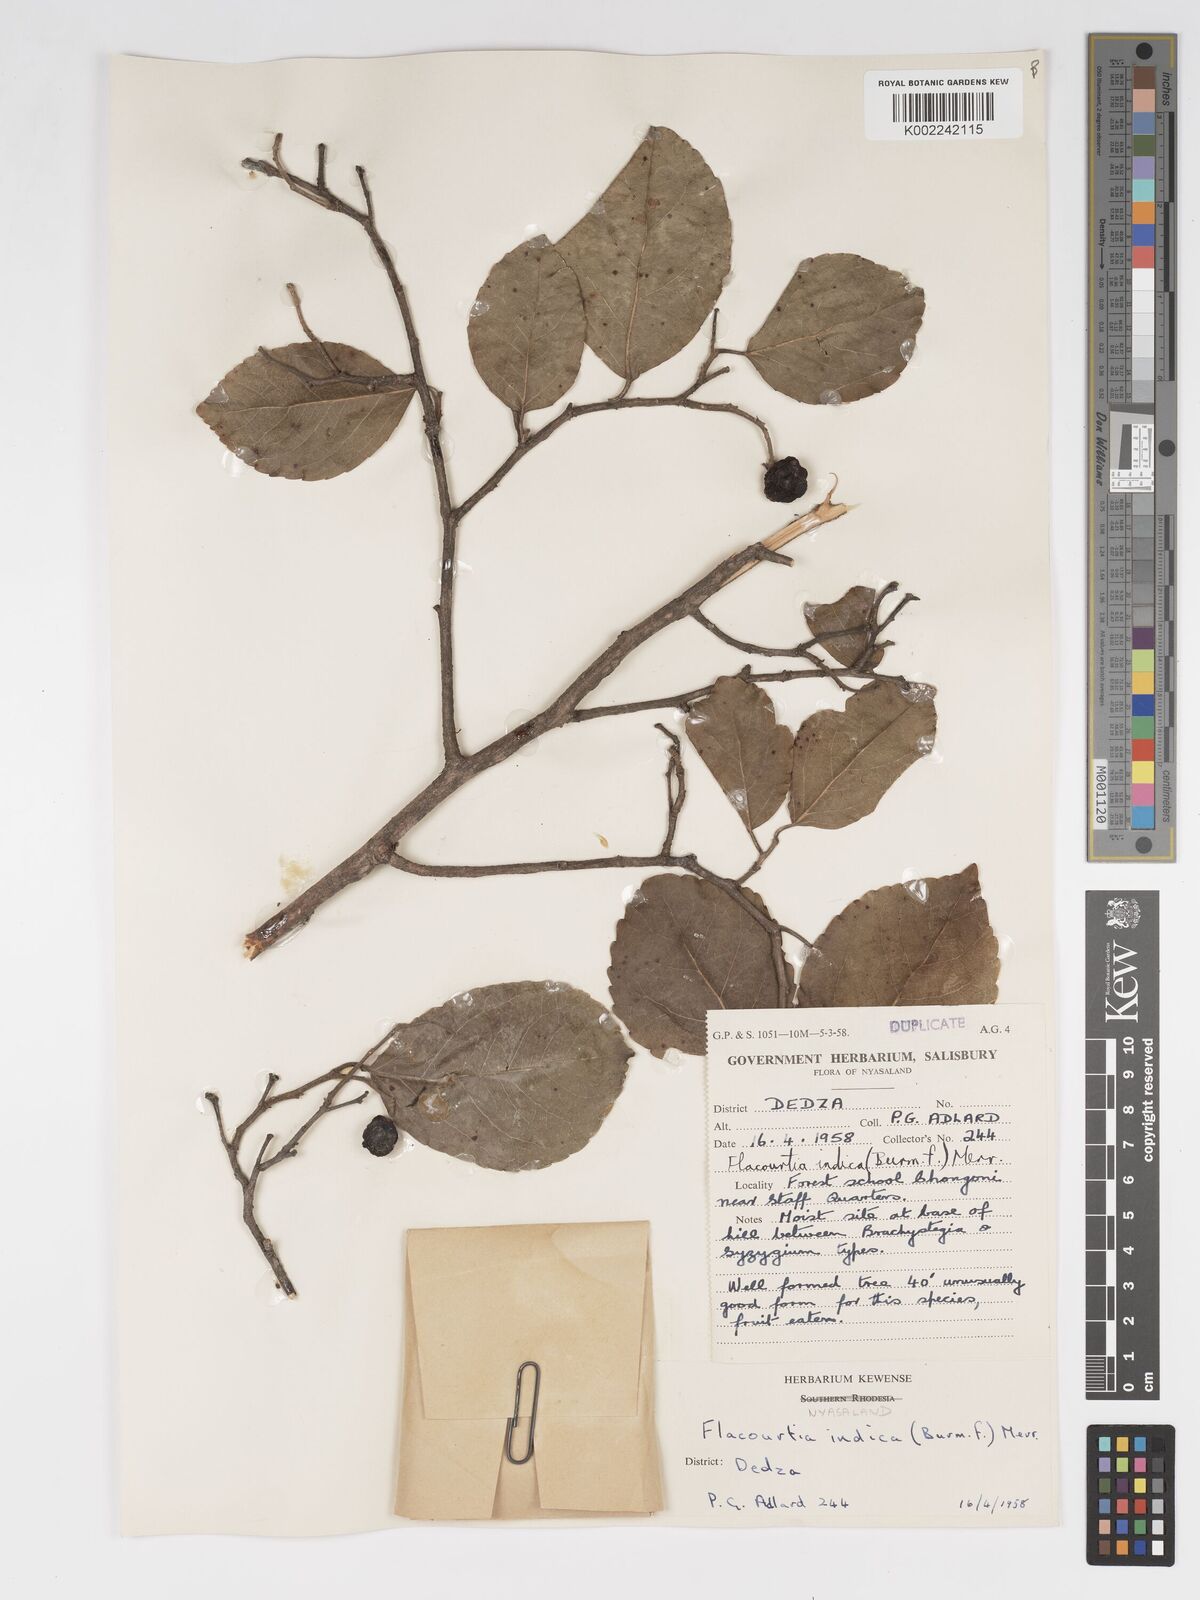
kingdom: Plantae
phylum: Tracheophyta
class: Magnoliopsida
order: Malpighiales
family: Salicaceae
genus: Flacourtia
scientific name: Flacourtia indica
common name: Governor's plum
